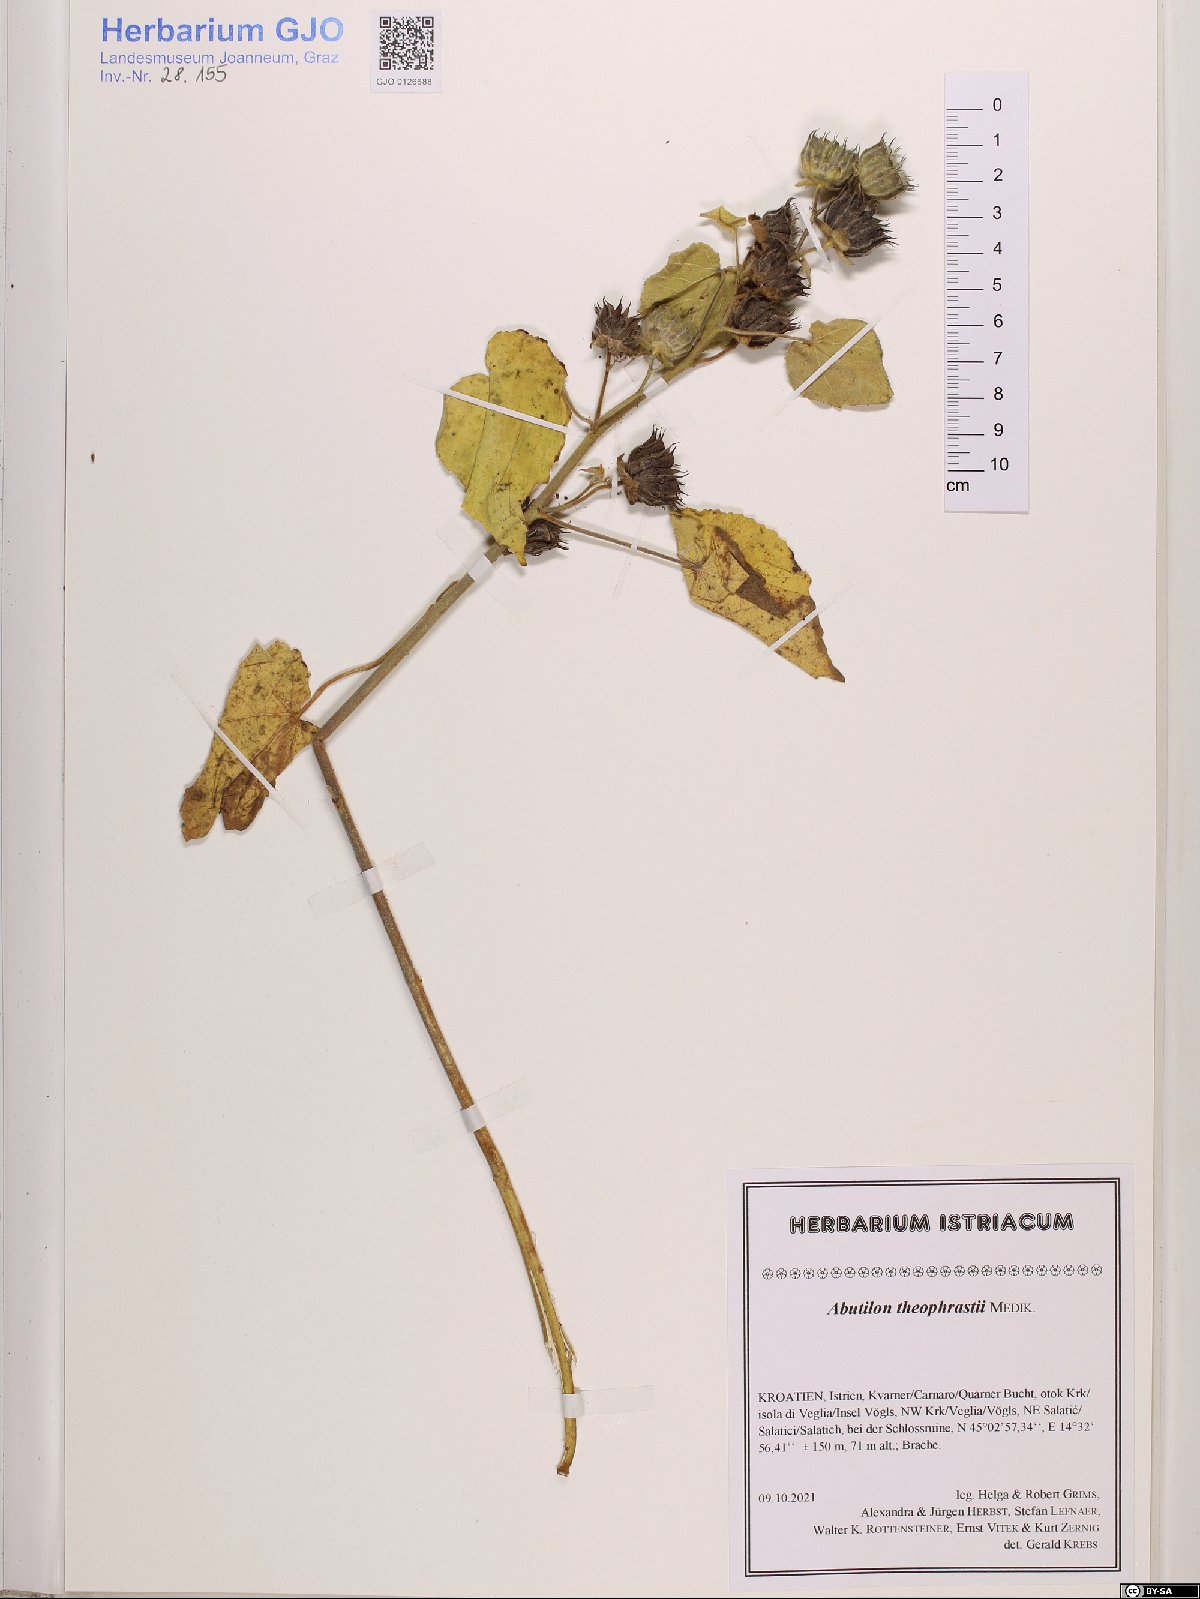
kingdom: Plantae
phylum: Tracheophyta
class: Magnoliopsida
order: Malvales
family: Malvaceae
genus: Abutilon
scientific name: Abutilon theophrasti
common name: Velvetleaf
